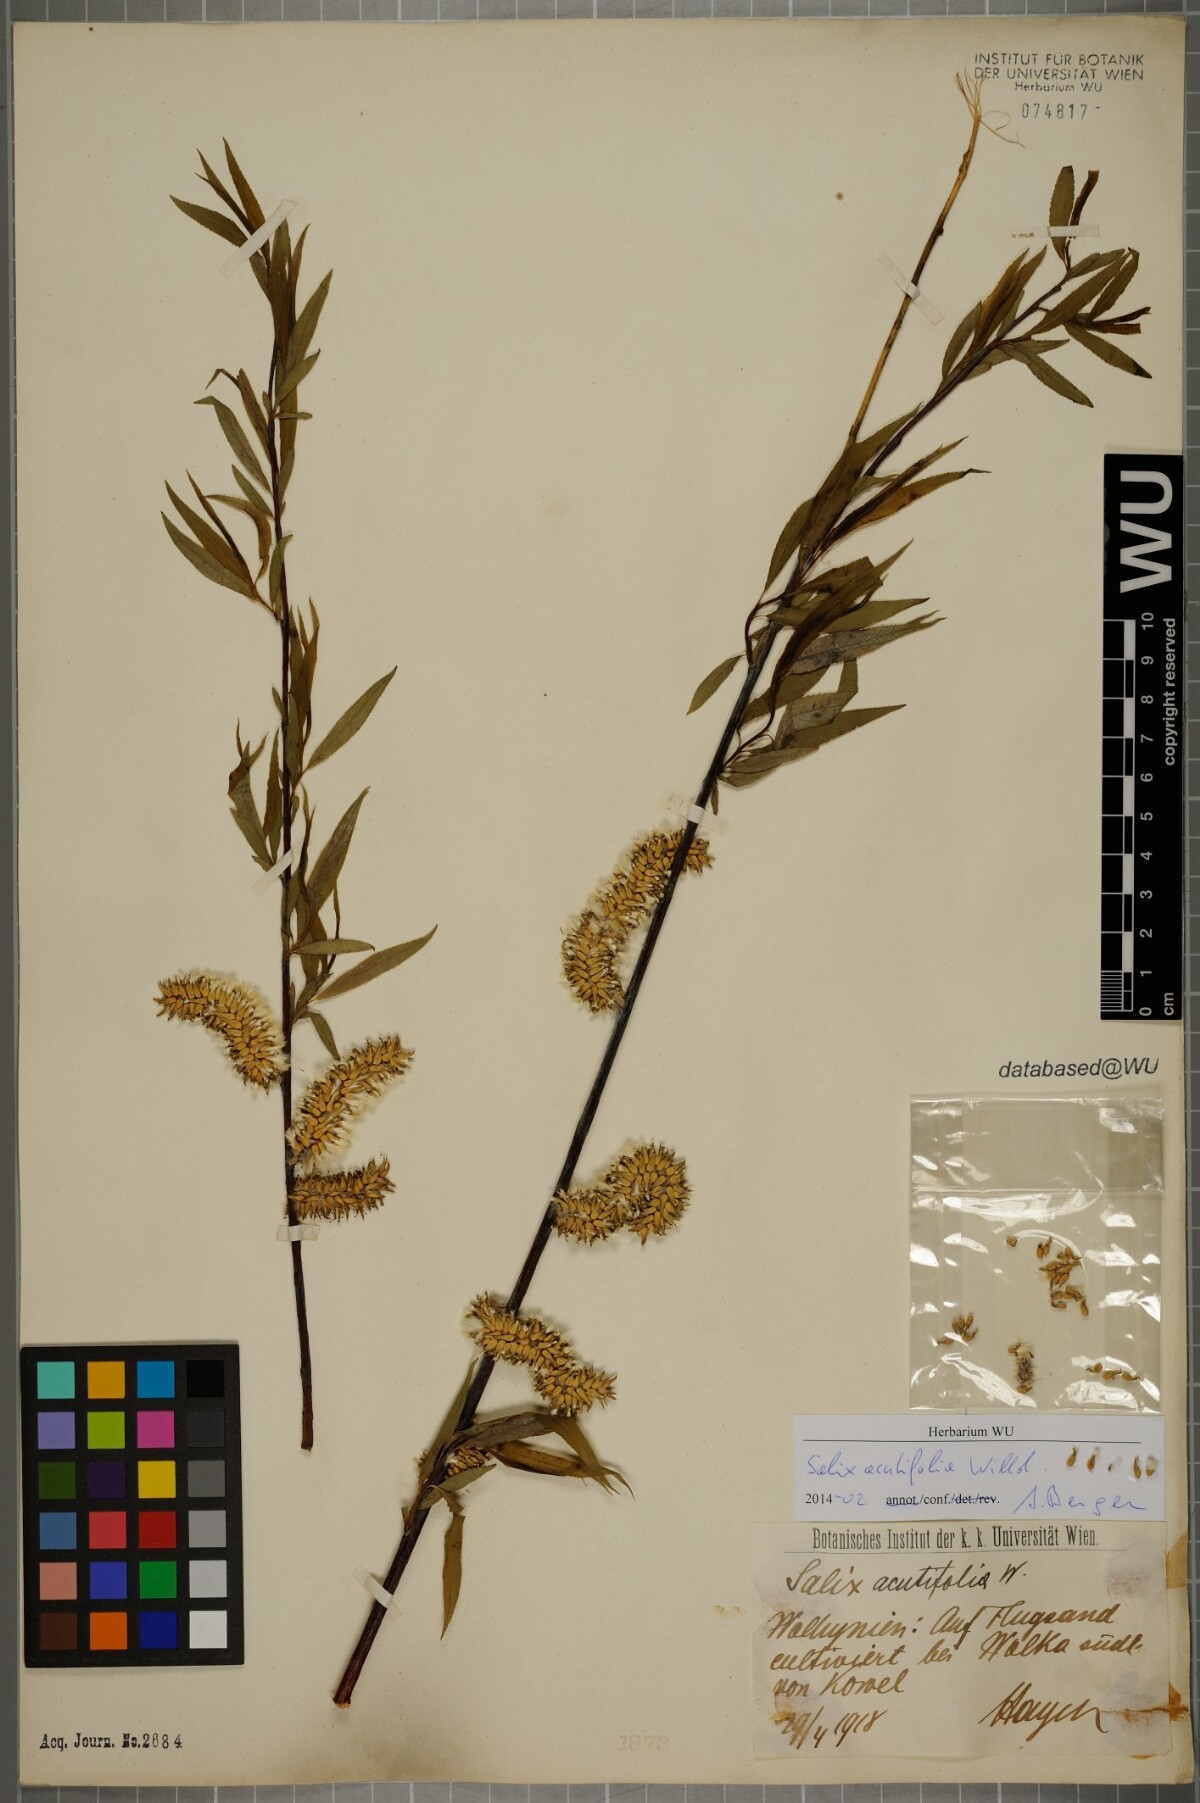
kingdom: Plantae
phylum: Tracheophyta
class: Magnoliopsida
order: Malpighiales
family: Salicaceae
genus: Salix
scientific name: Salix acutifolia
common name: Siberian violet-willow
